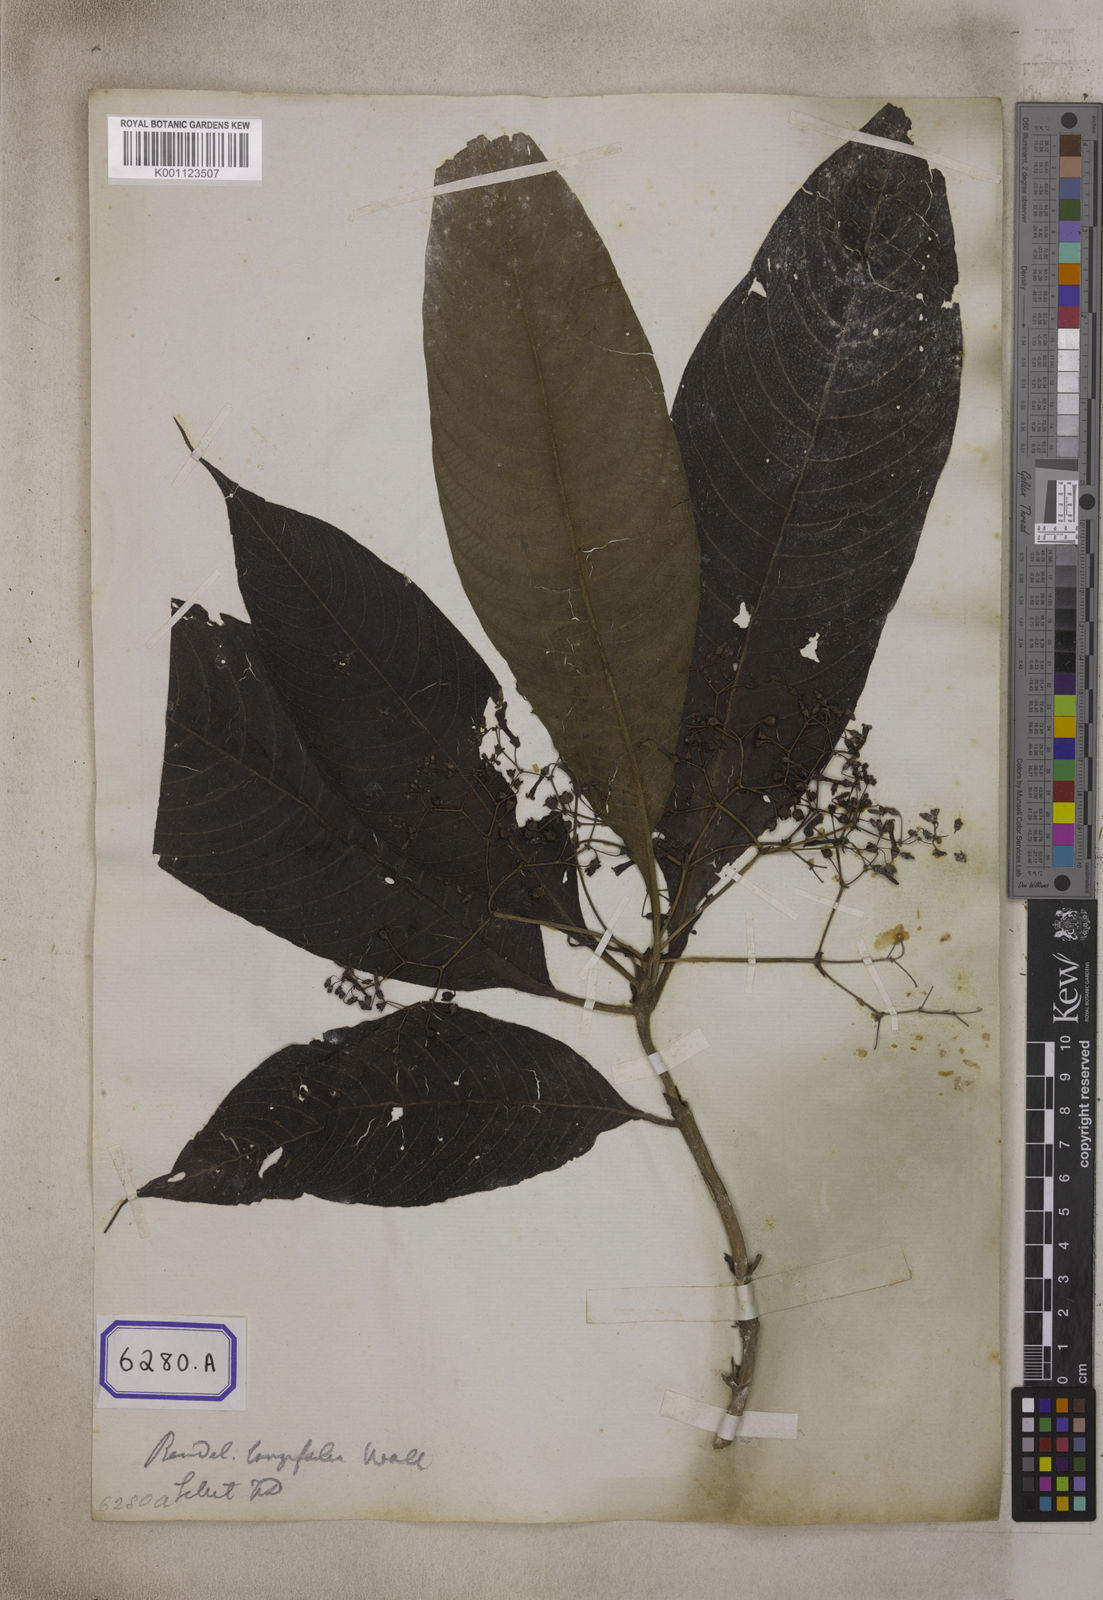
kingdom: Plantae
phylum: Tracheophyta
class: Magnoliopsida
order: Gentianales
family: Rubiaceae
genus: Adenosacme
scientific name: Adenosacme
